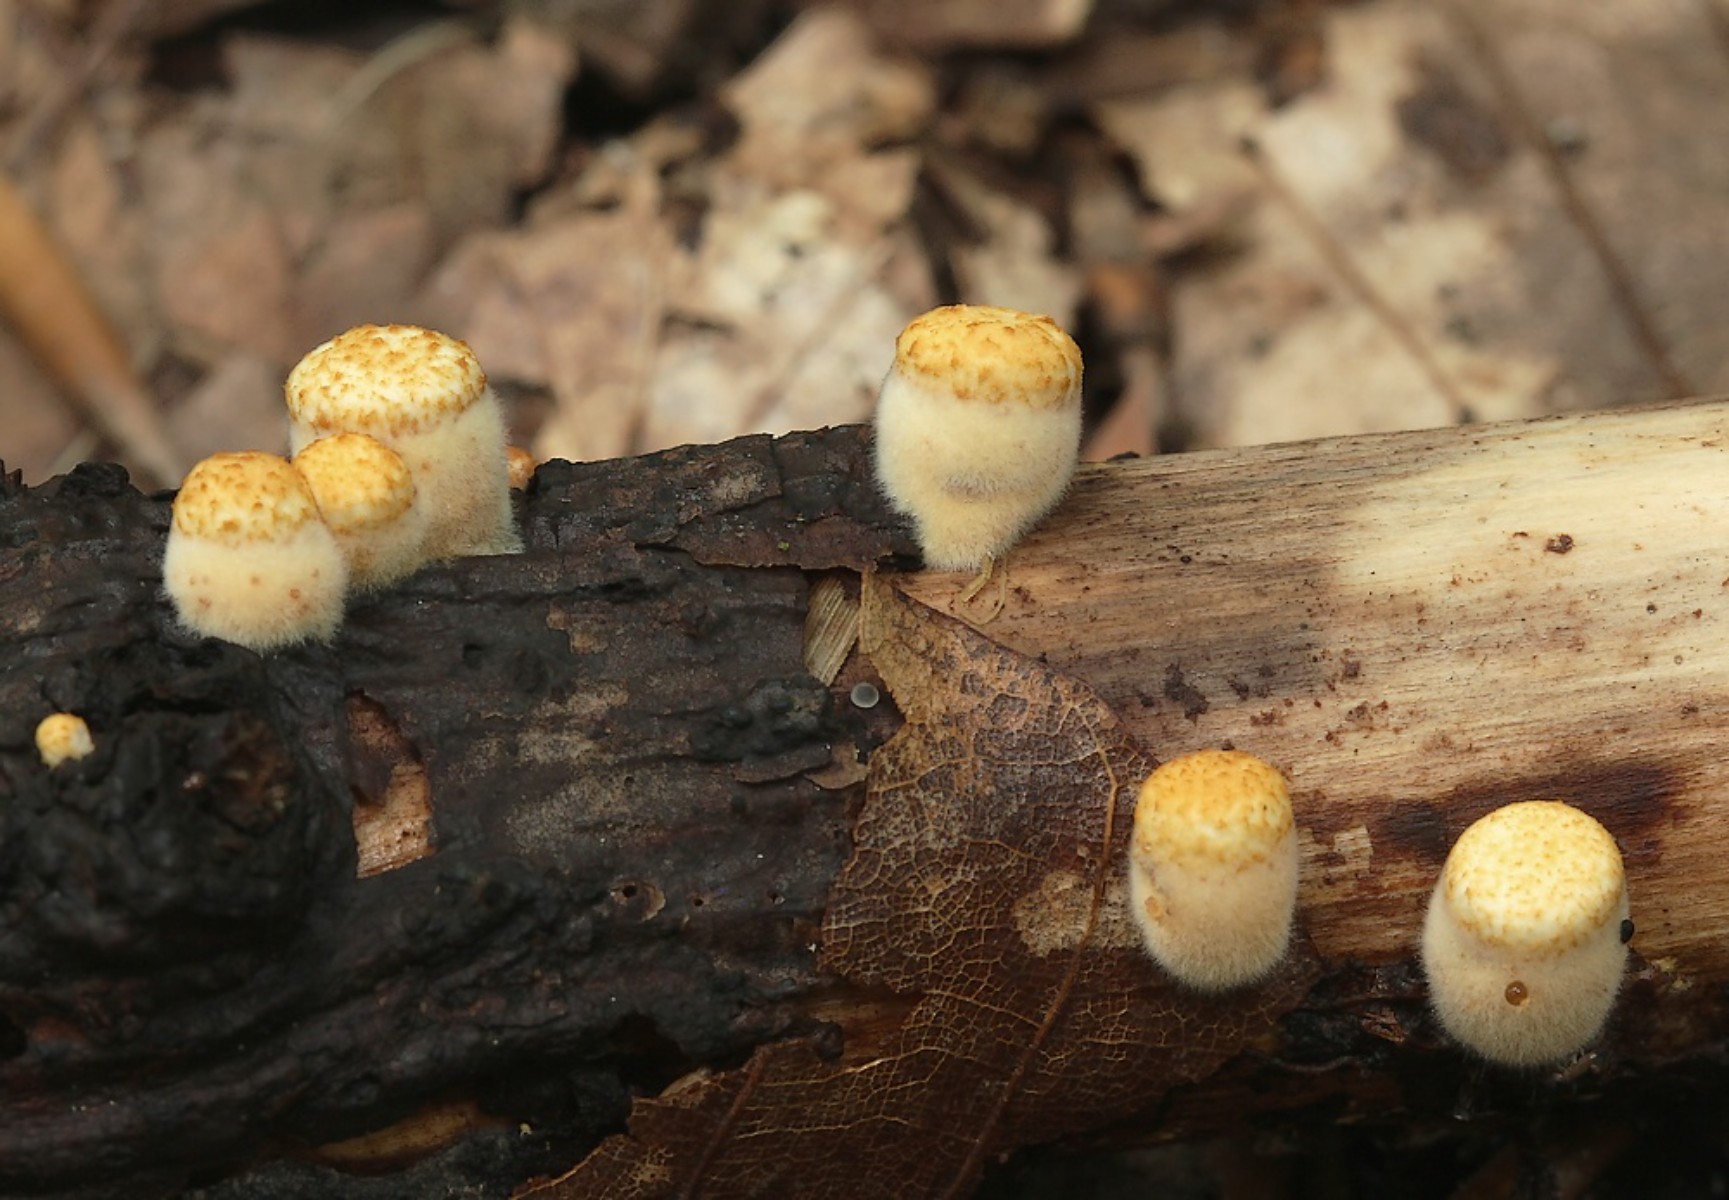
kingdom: Fungi
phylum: Basidiomycota
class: Agaricomycetes
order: Agaricales
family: Nidulariaceae
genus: Crucibulum
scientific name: Crucibulum crucibuliforme
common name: krukkesvamp
